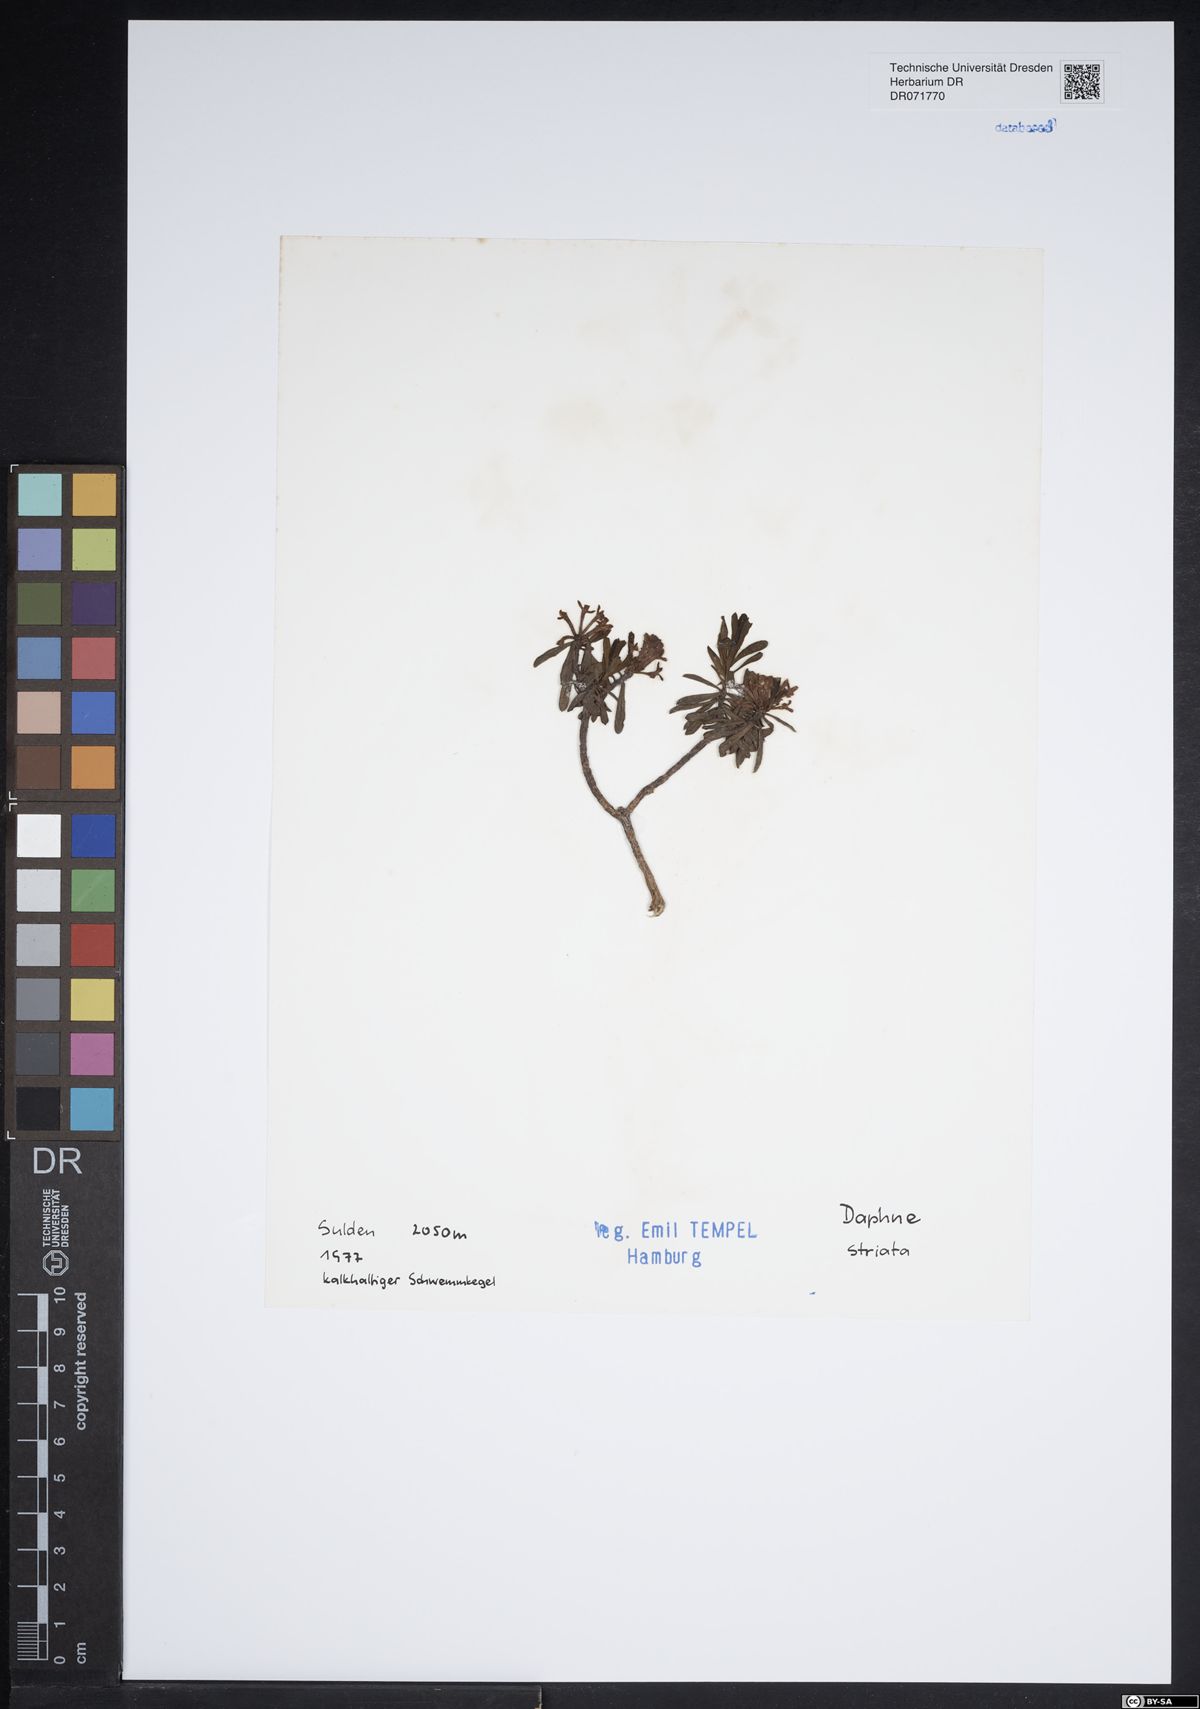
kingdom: Plantae
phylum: Tracheophyta
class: Magnoliopsida
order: Malvales
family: Thymelaeaceae
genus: Daphne
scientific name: Daphne striata
